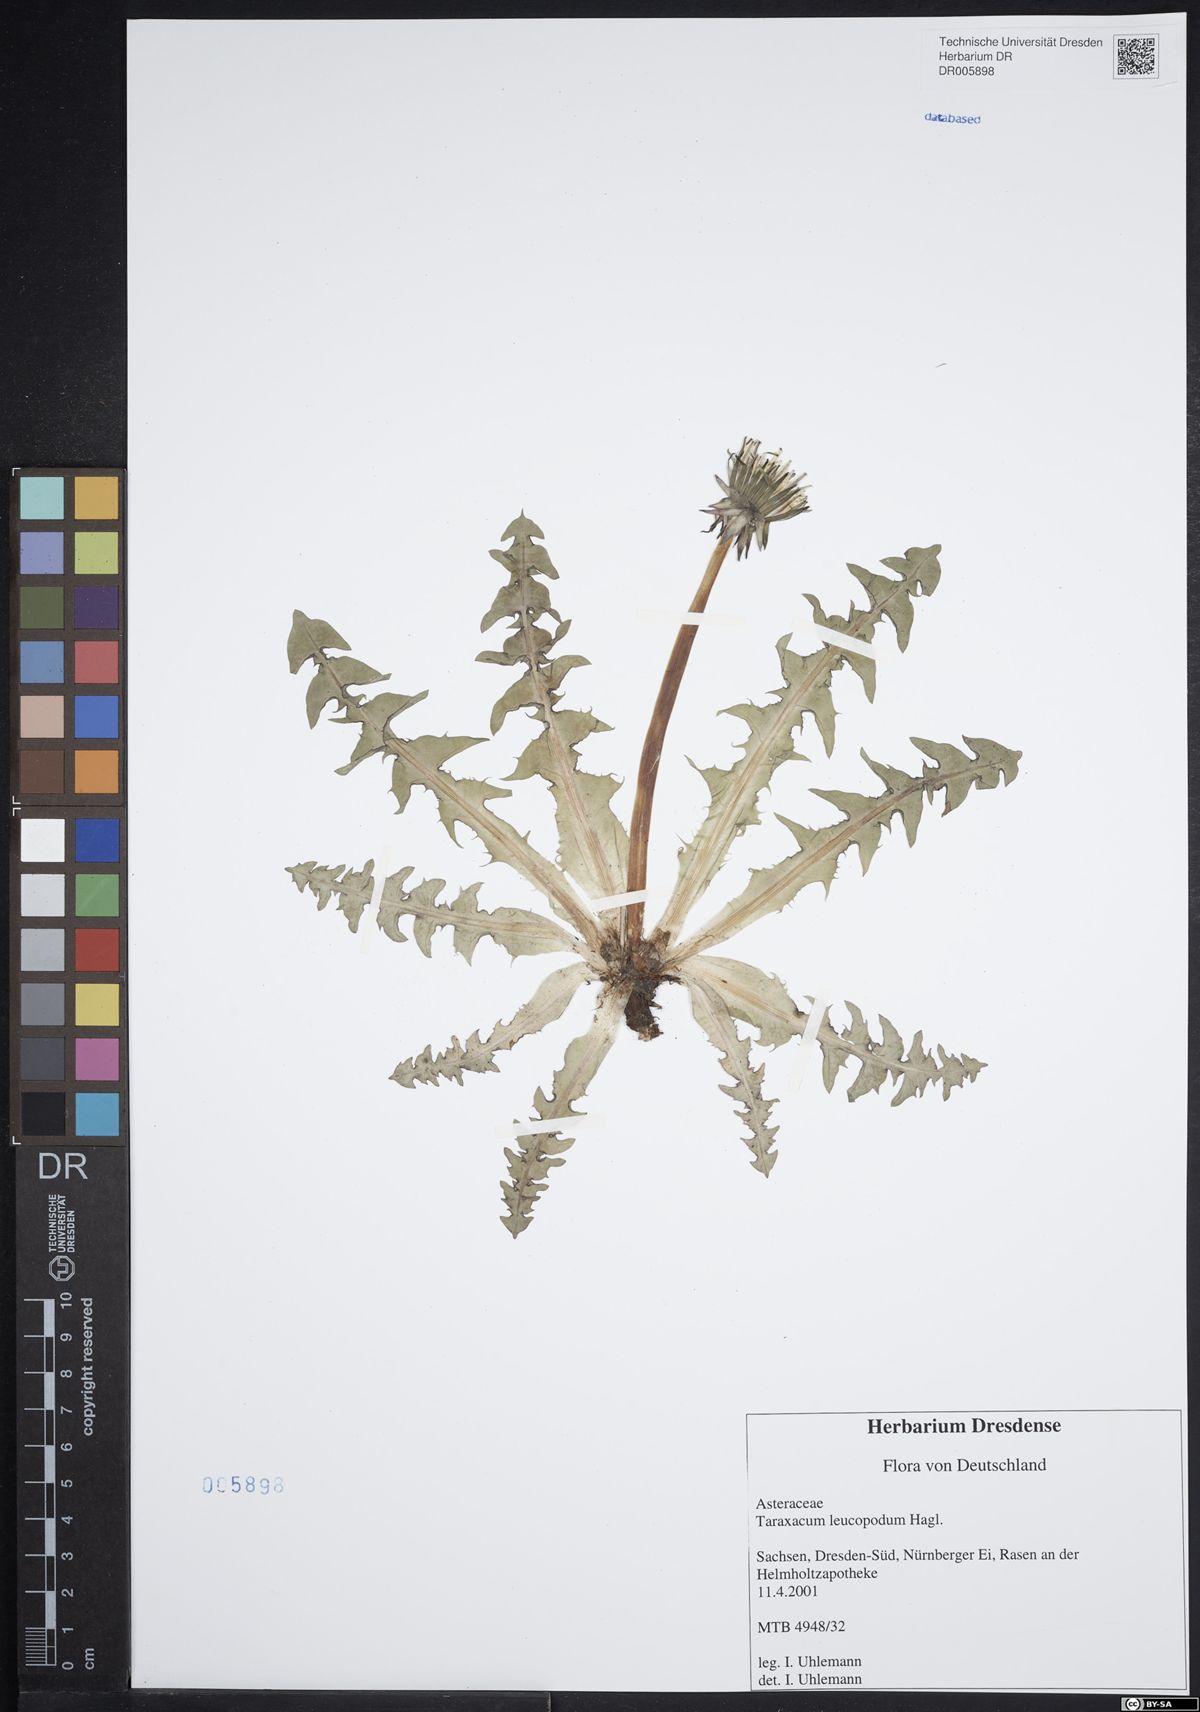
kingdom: Plantae
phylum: Tracheophyta
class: Magnoliopsida
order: Asterales
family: Asteraceae
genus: Taraxacum
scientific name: Taraxacum leucopodum
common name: White-stalked dandelion
